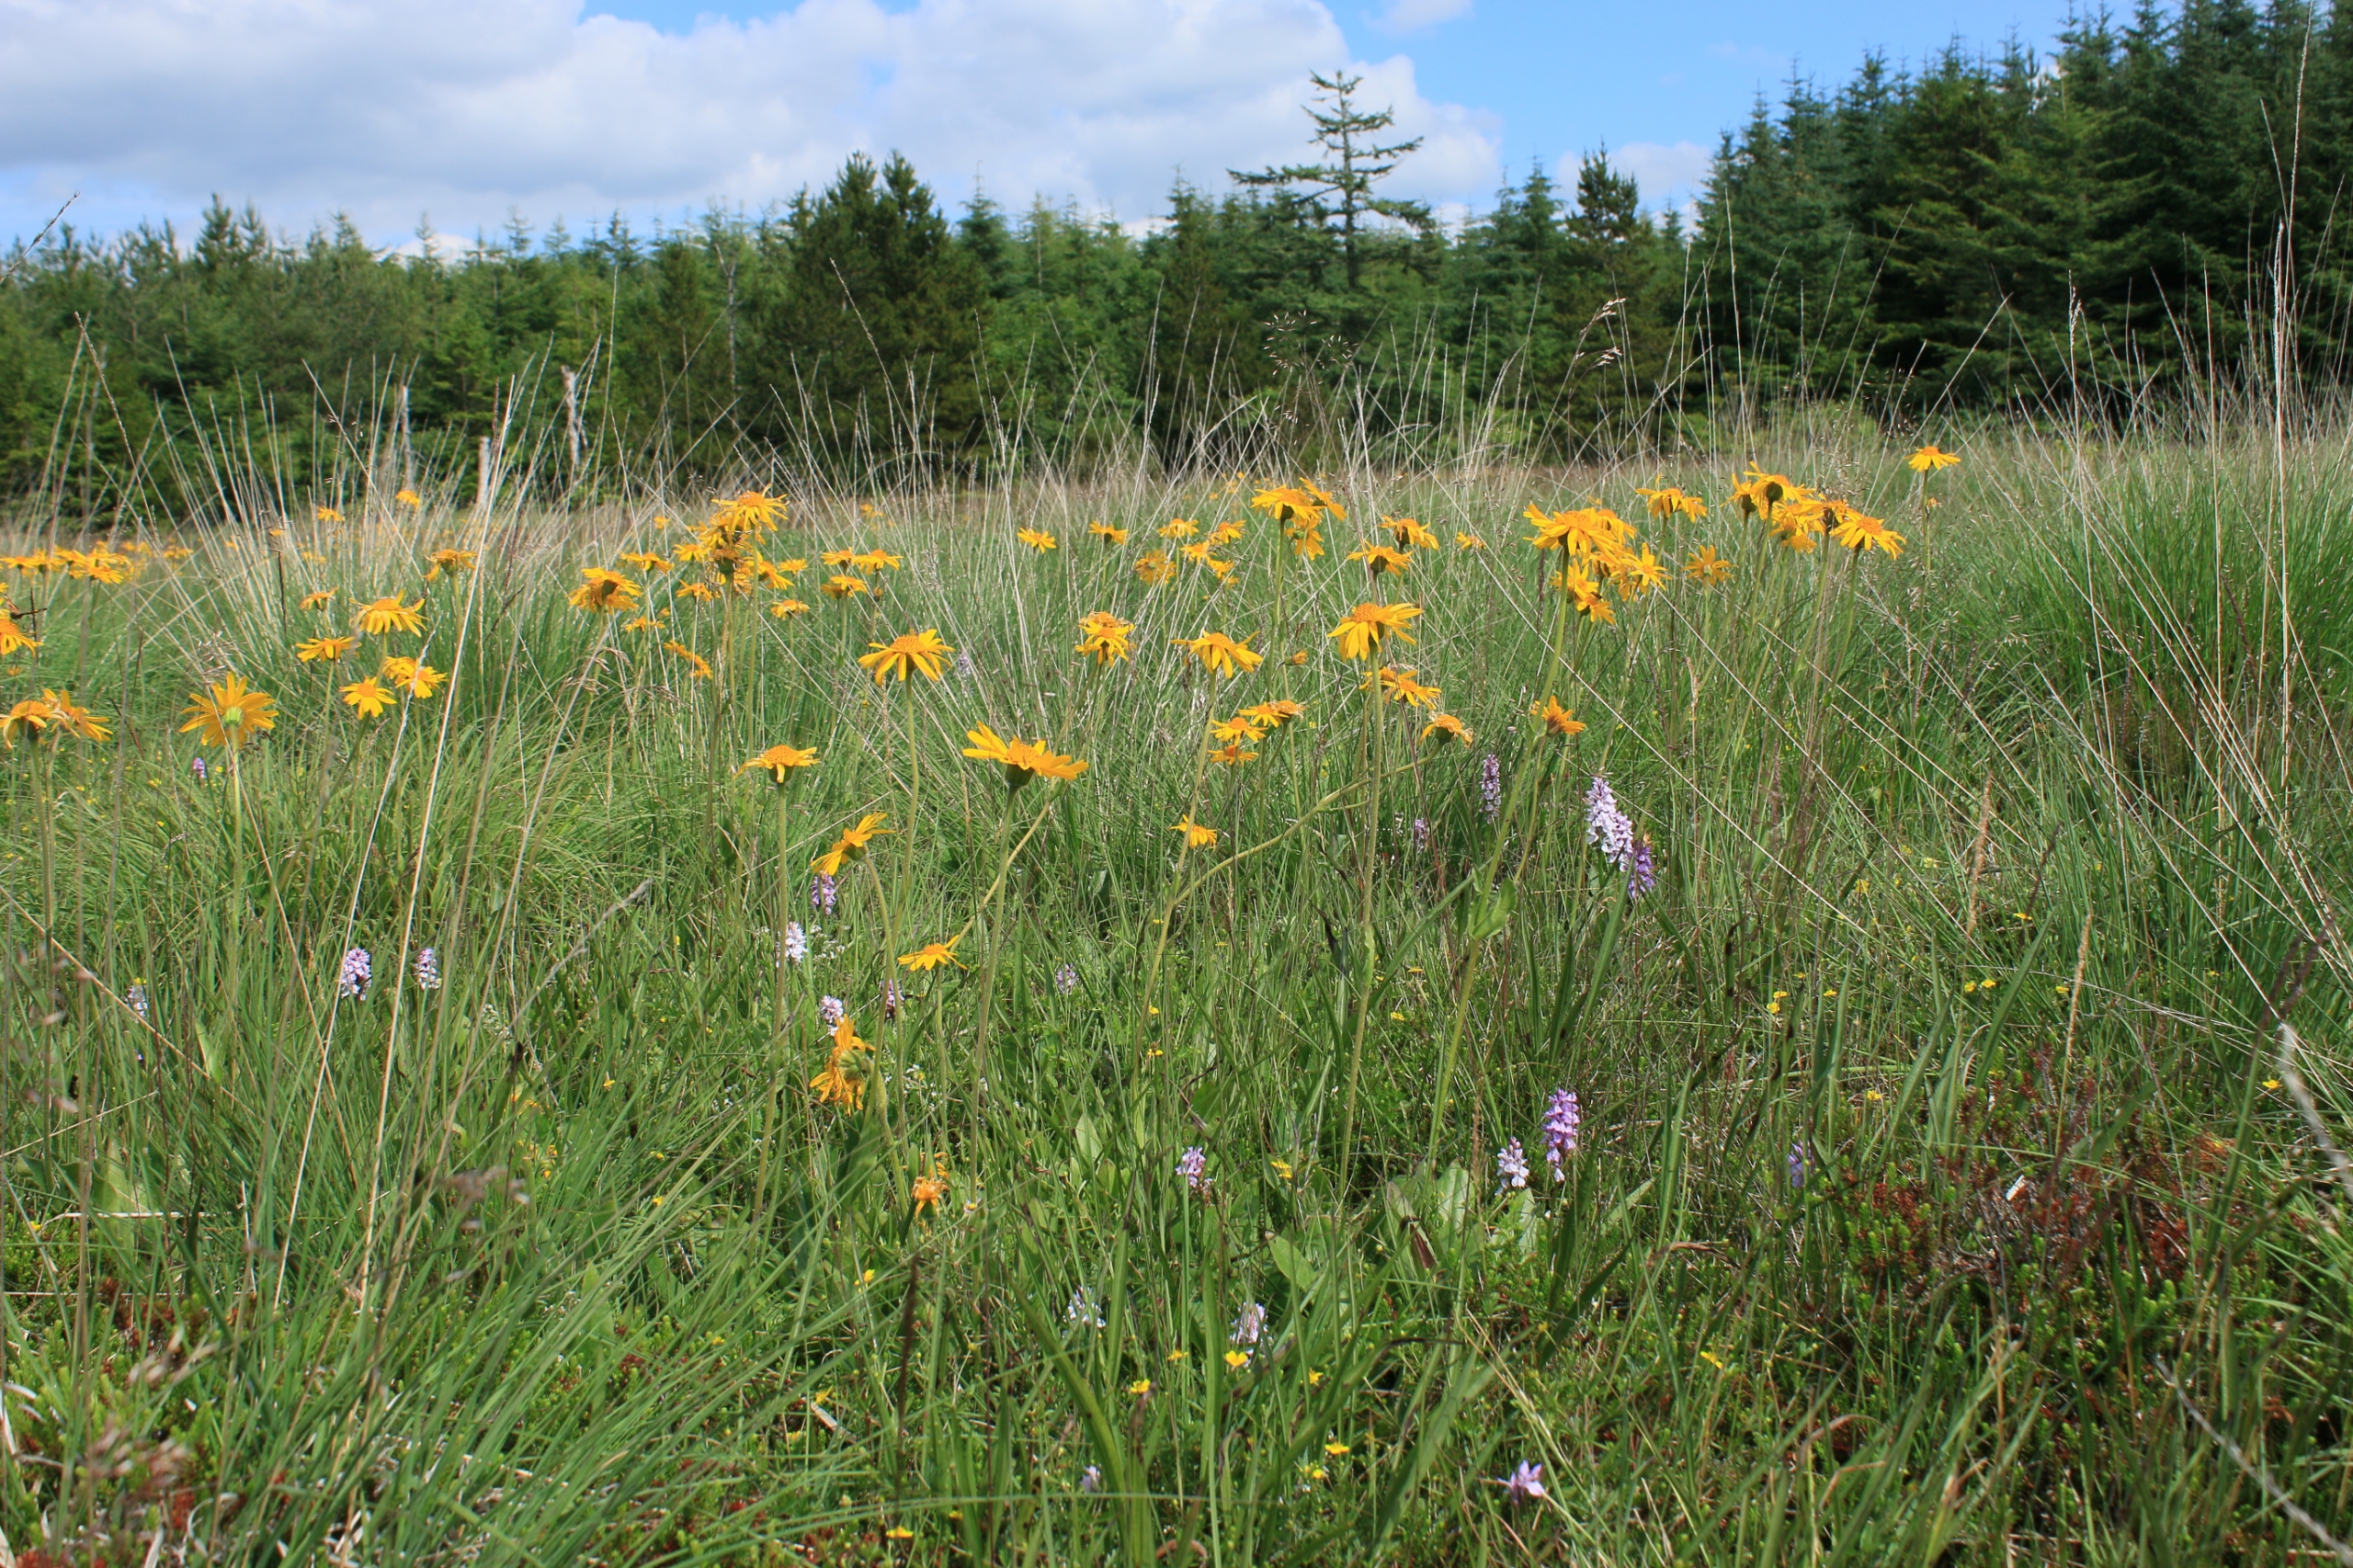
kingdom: Plantae
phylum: Tracheophyta
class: Magnoliopsida
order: Asterales
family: Asteraceae
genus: Arnica
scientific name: Arnica montana
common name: Guldblomme
